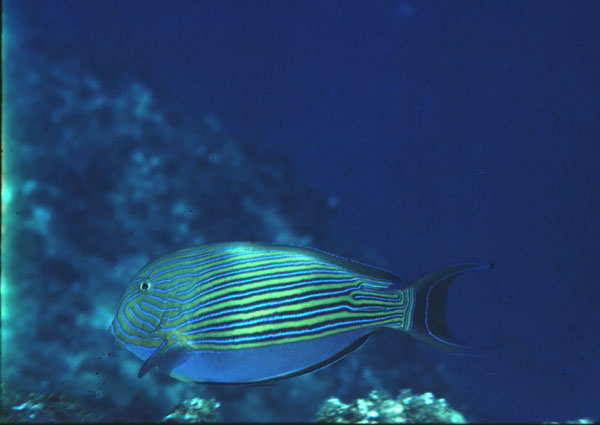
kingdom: Animalia
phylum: Chordata
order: Perciformes
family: Acanthuridae
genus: Acanthurus
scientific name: Acanthurus lineatus
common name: Striped surgeonfish
